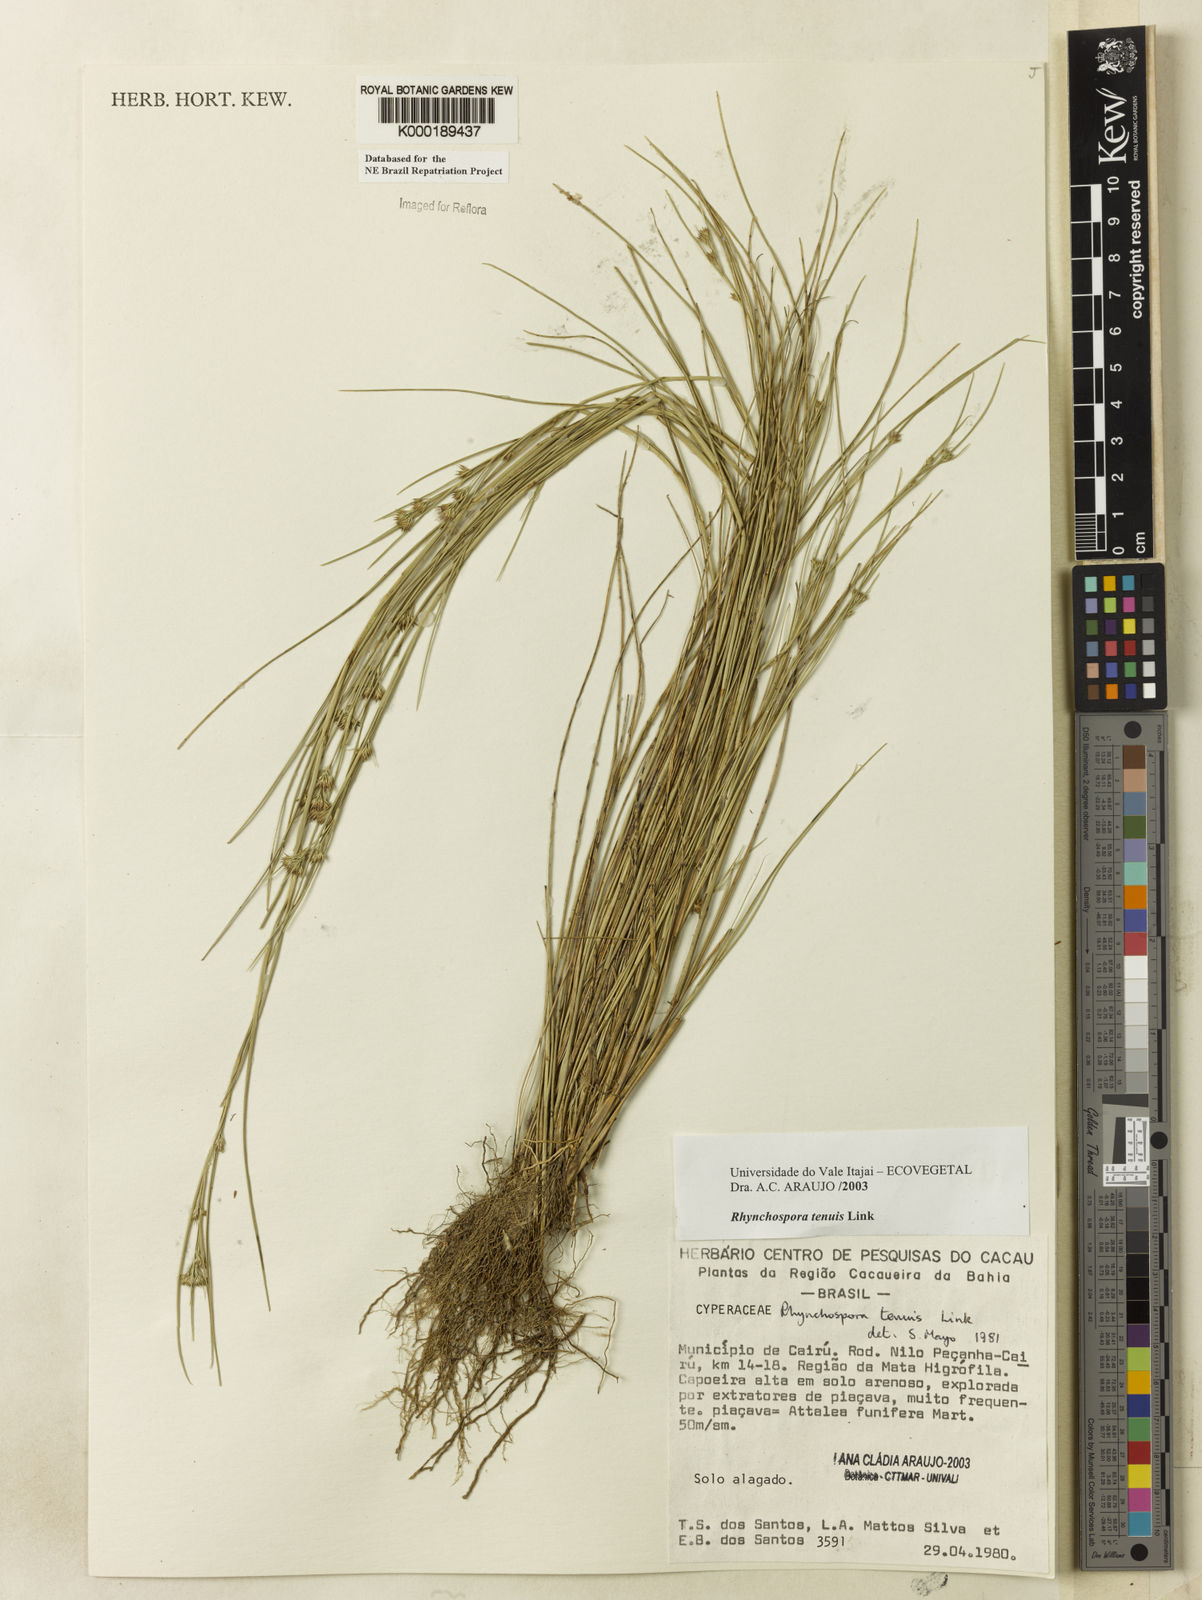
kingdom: Plantae
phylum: Tracheophyta
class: Liliopsida
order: Poales
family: Cyperaceae
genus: Rhynchospora
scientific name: Rhynchospora tenuis
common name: Quill beaksedge
